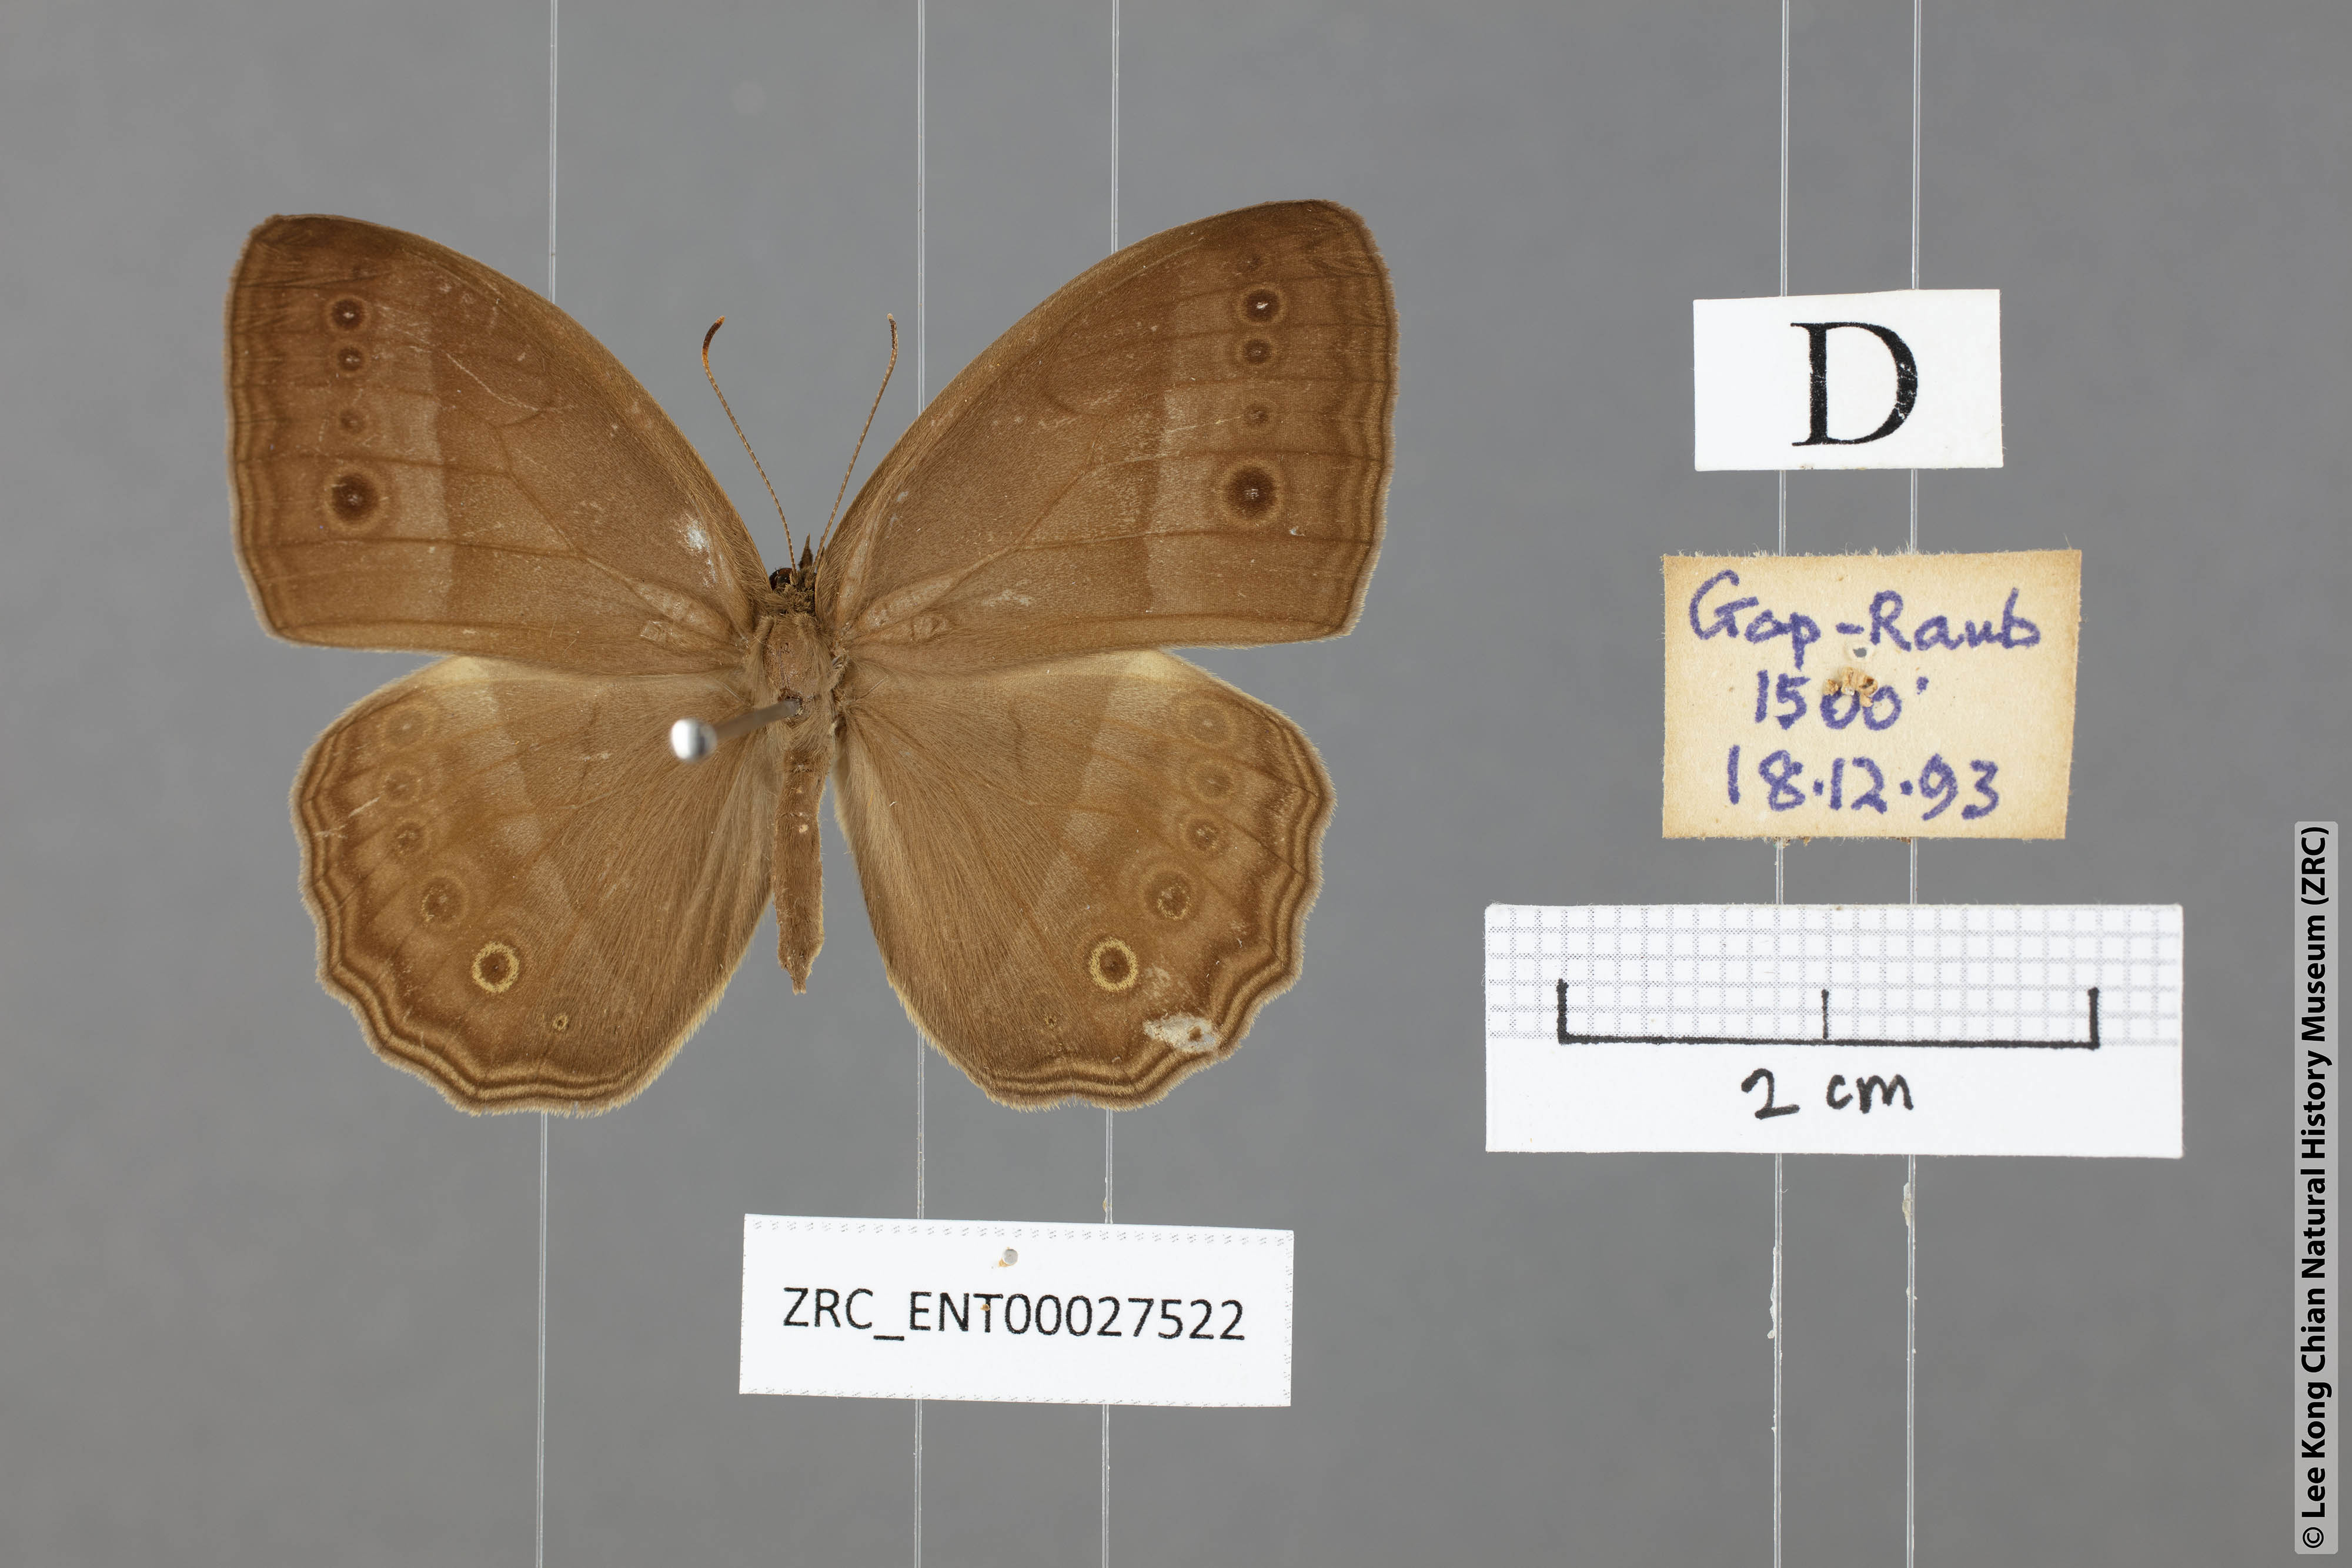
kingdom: Animalia
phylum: Arthropoda
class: Insecta
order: Lepidoptera
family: Nymphalidae
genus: Mycalesis
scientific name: Mycalesis orseis
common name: Purple bushbrown
